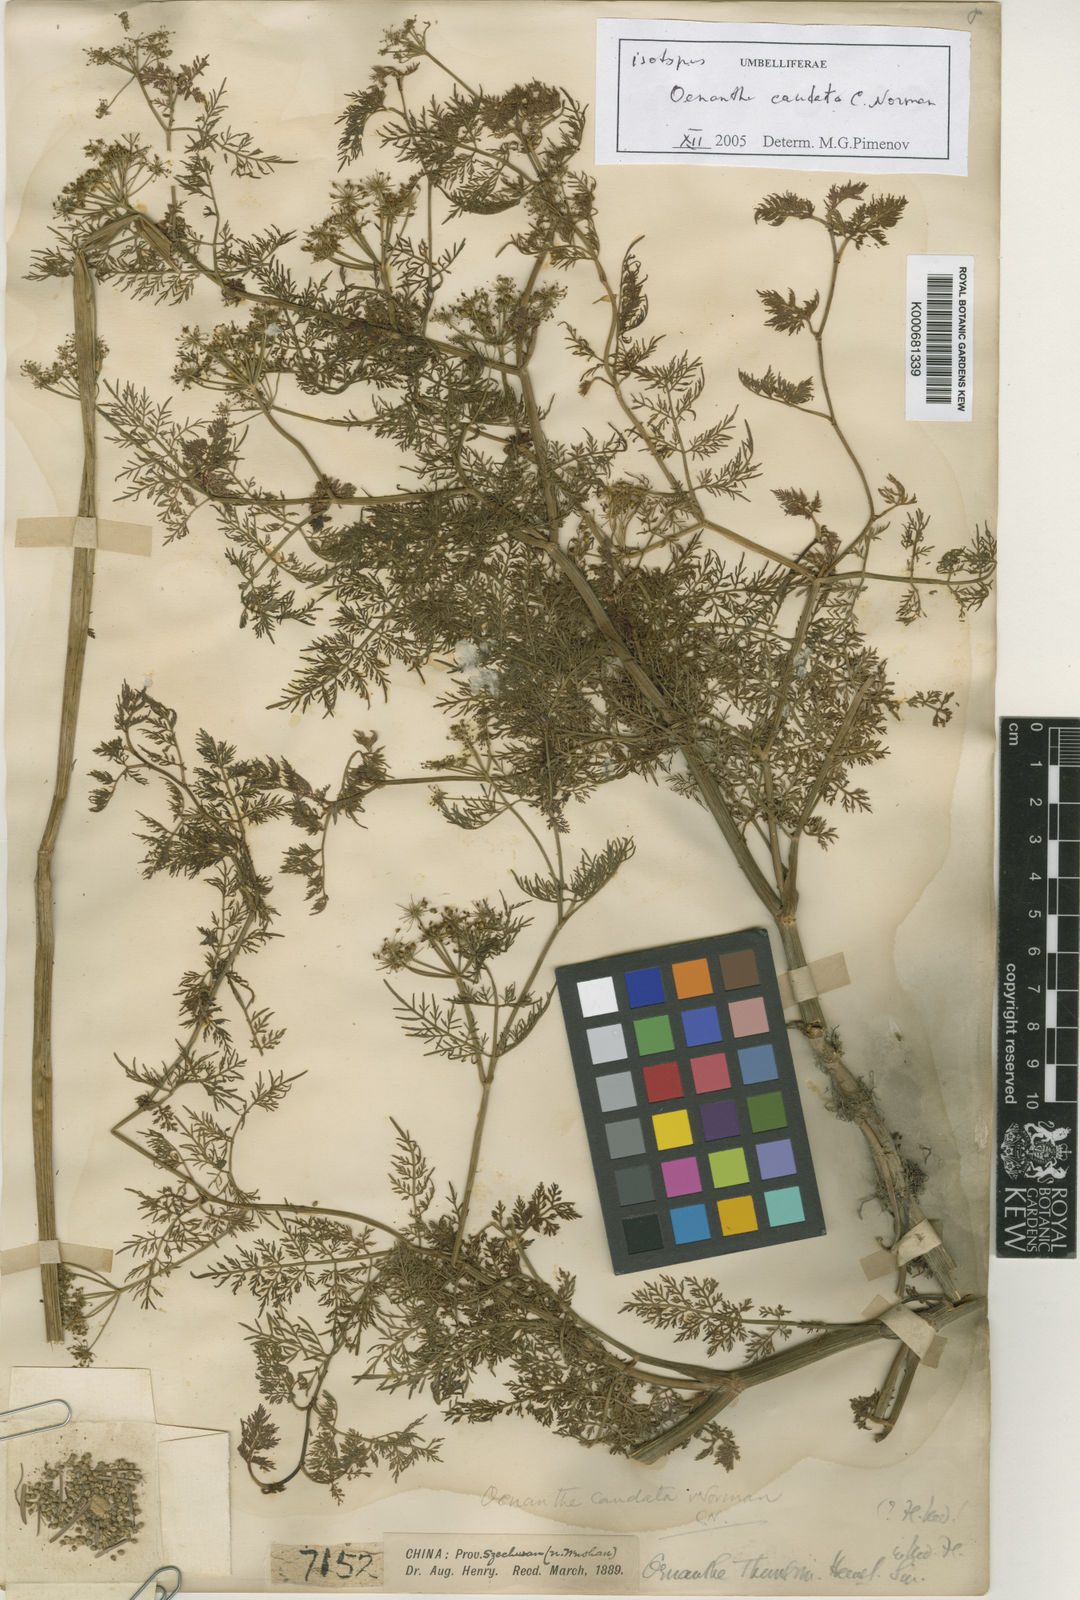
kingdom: Plantae
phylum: Tracheophyta
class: Magnoliopsida
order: Apiales
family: Apiaceae
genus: Oenanthe
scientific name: Oenanthe thomsonii
